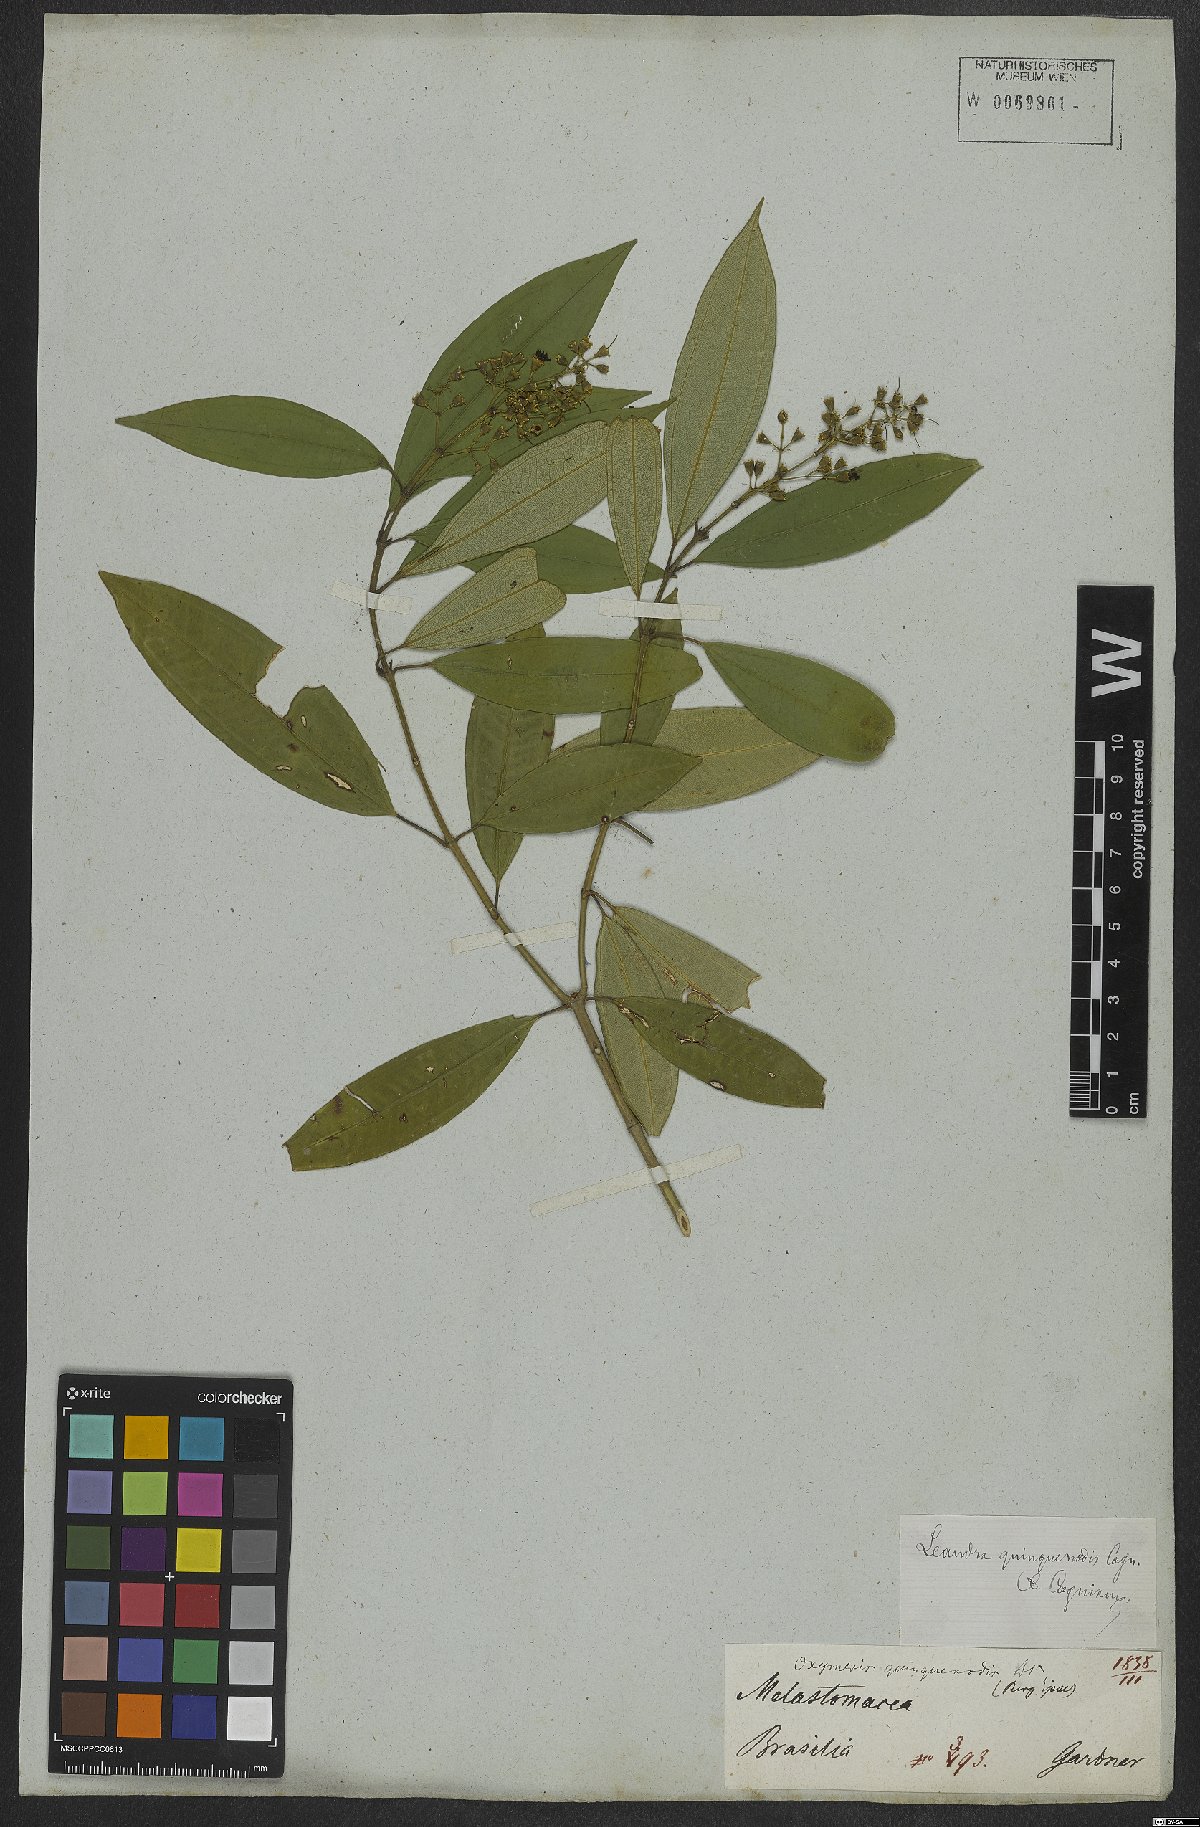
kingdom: Plantae
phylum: Tracheophyta
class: Magnoliopsida
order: Myrtales
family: Melastomataceae
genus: Miconia
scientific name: Miconia quinquenodis
